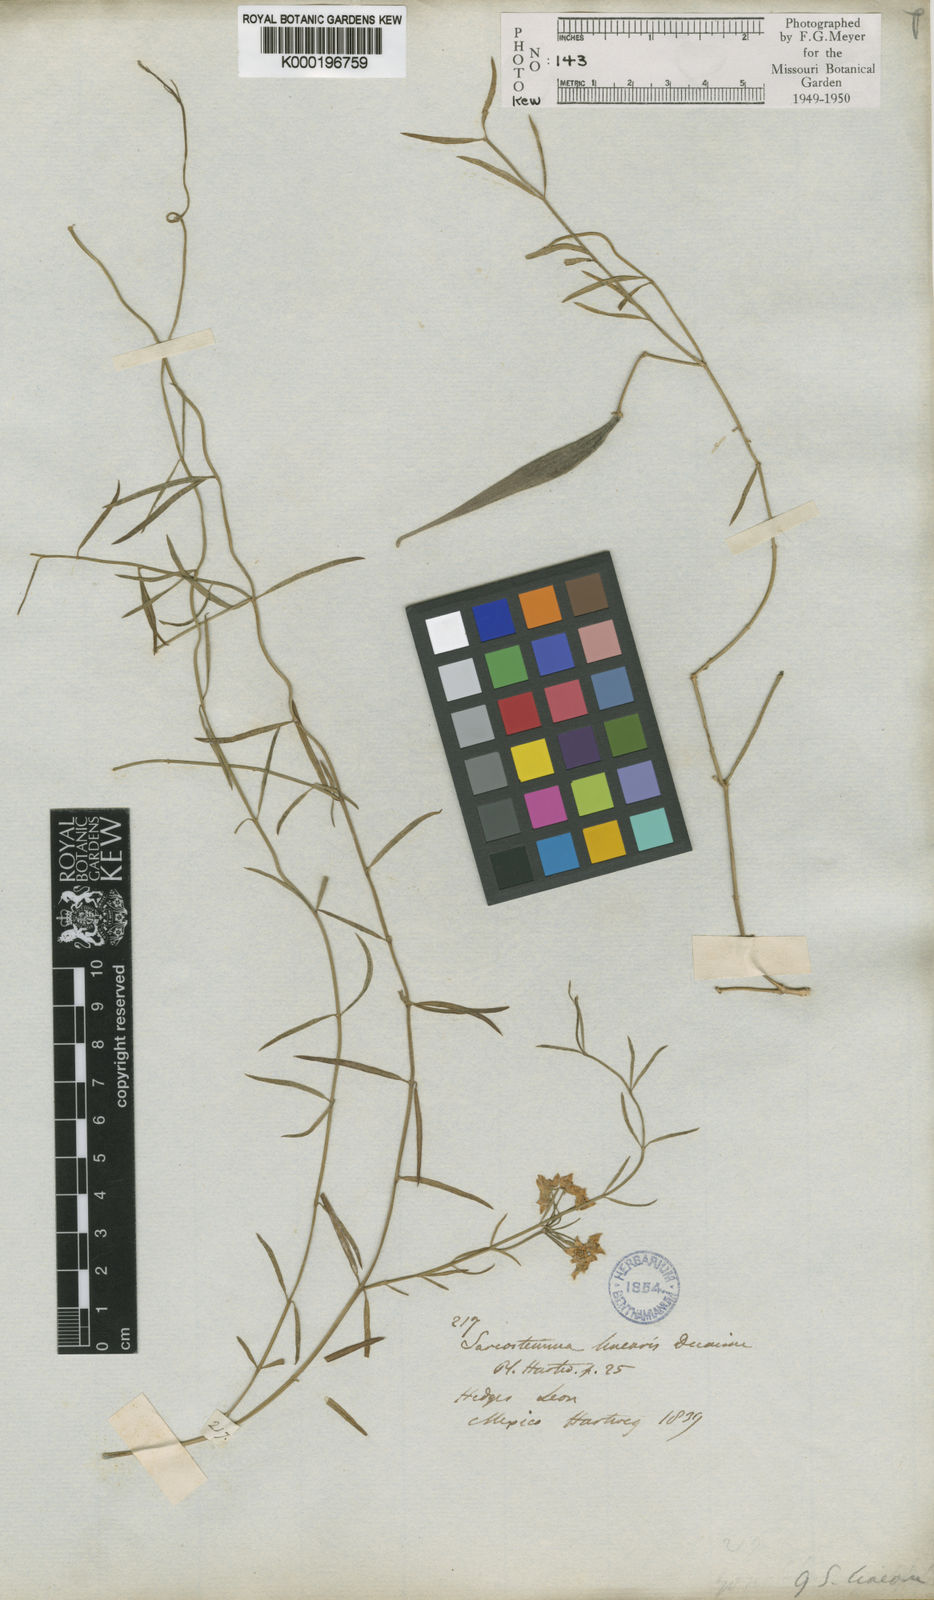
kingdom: Plantae
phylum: Tracheophyta
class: Magnoliopsida
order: Gentianales
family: Apocynaceae
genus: Funastrum
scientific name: Funastrum heterophyllum
